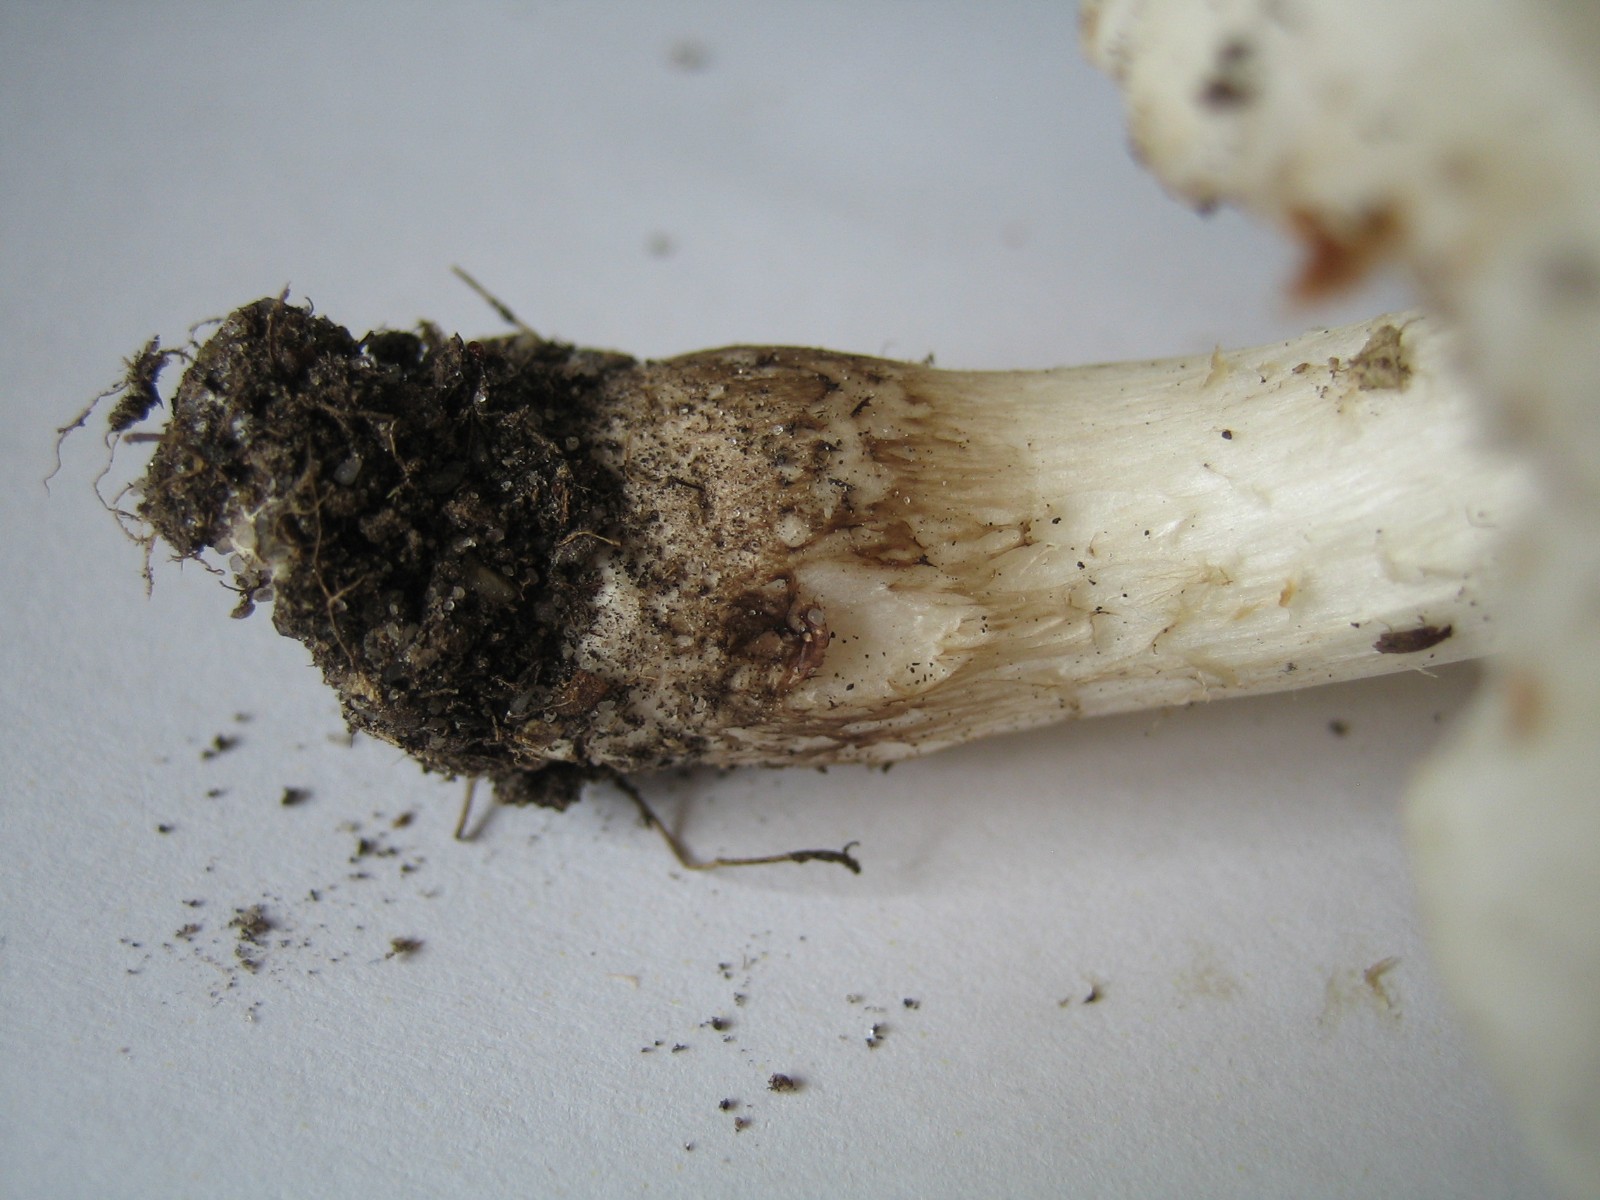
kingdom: Fungi
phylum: Basidiomycota
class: Agaricomycetes
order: Agaricales
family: Pluteaceae
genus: Pluteus
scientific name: Pluteus petasatus
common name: savsmulds-skærmhat
